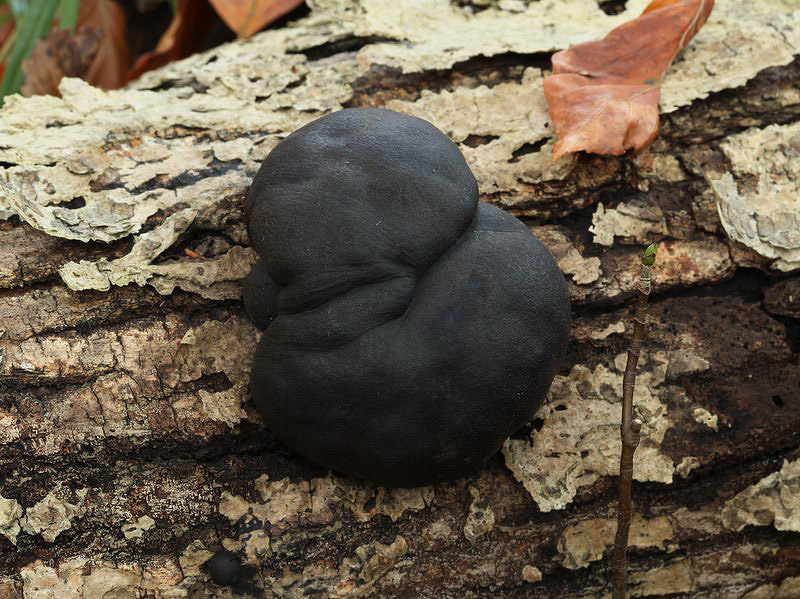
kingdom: Fungi
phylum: Ascomycota
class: Sordariomycetes
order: Xylariales
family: Hypoxylaceae
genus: Daldinia
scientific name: Daldinia concentrica
